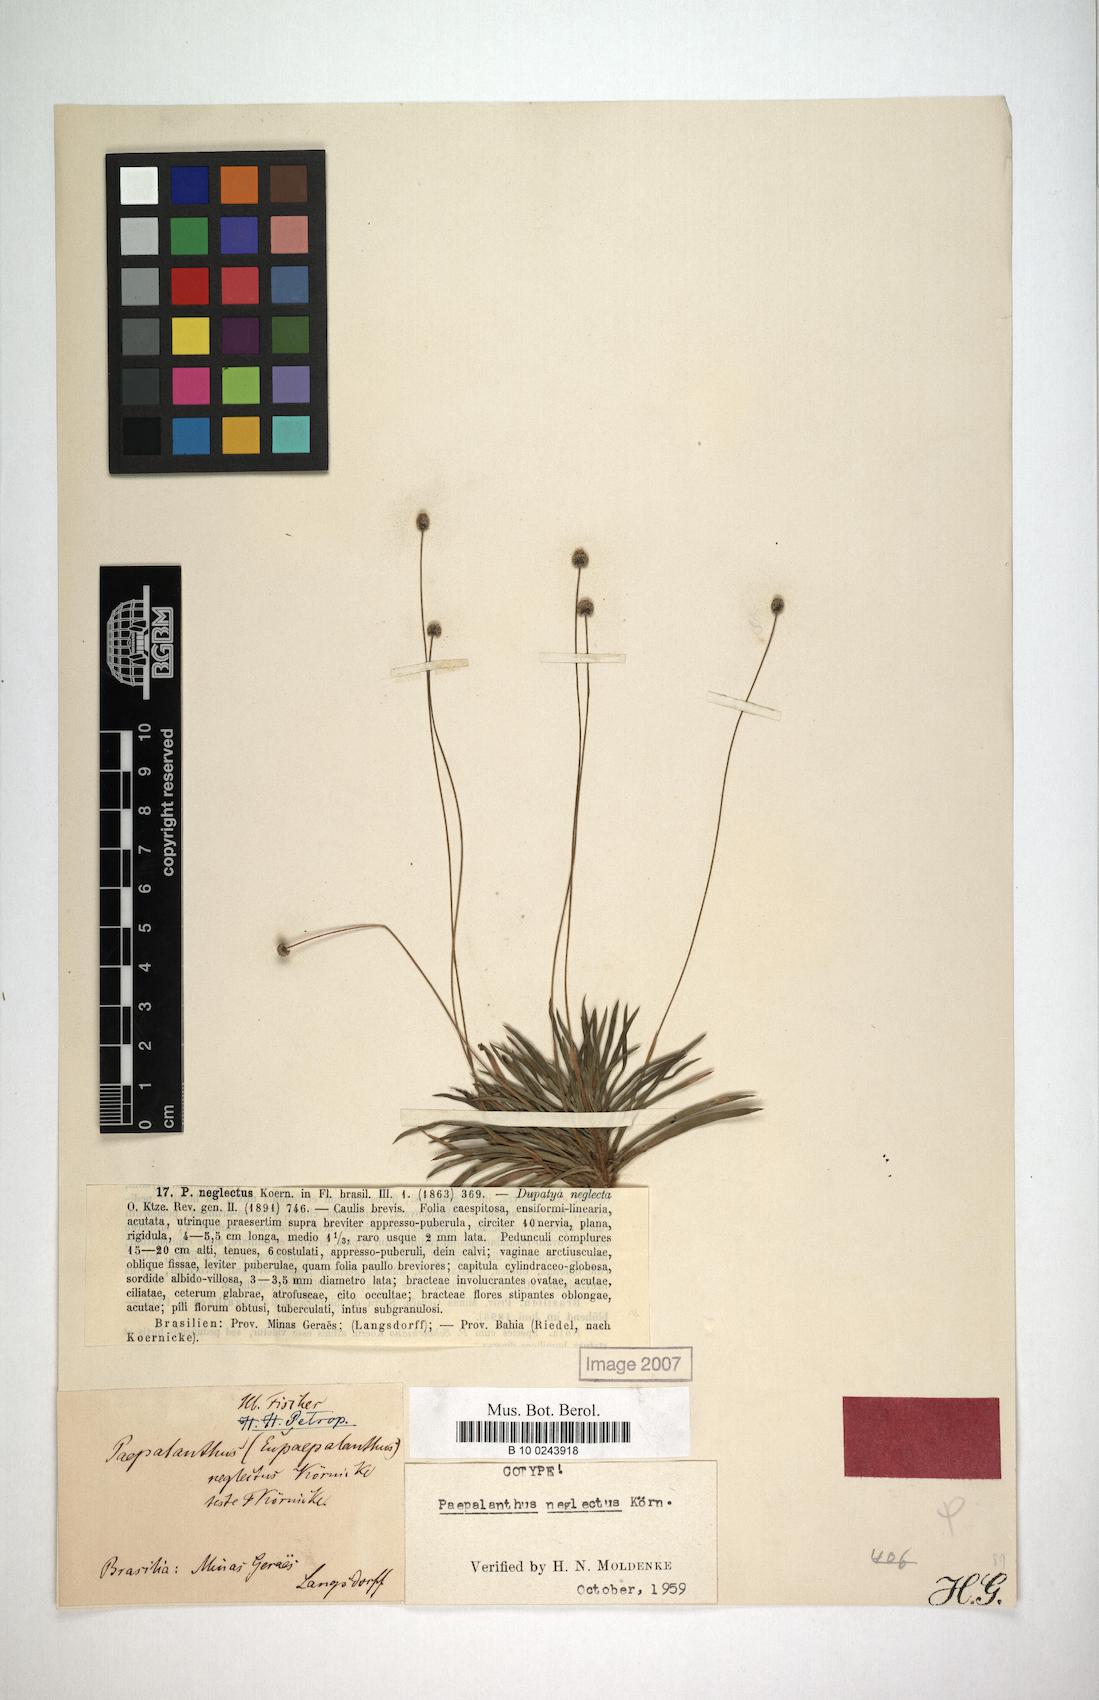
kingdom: Plantae
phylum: Tracheophyta
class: Liliopsida
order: Poales
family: Eriocaulaceae
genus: Paepalanthus
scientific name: Paepalanthus neglectus
